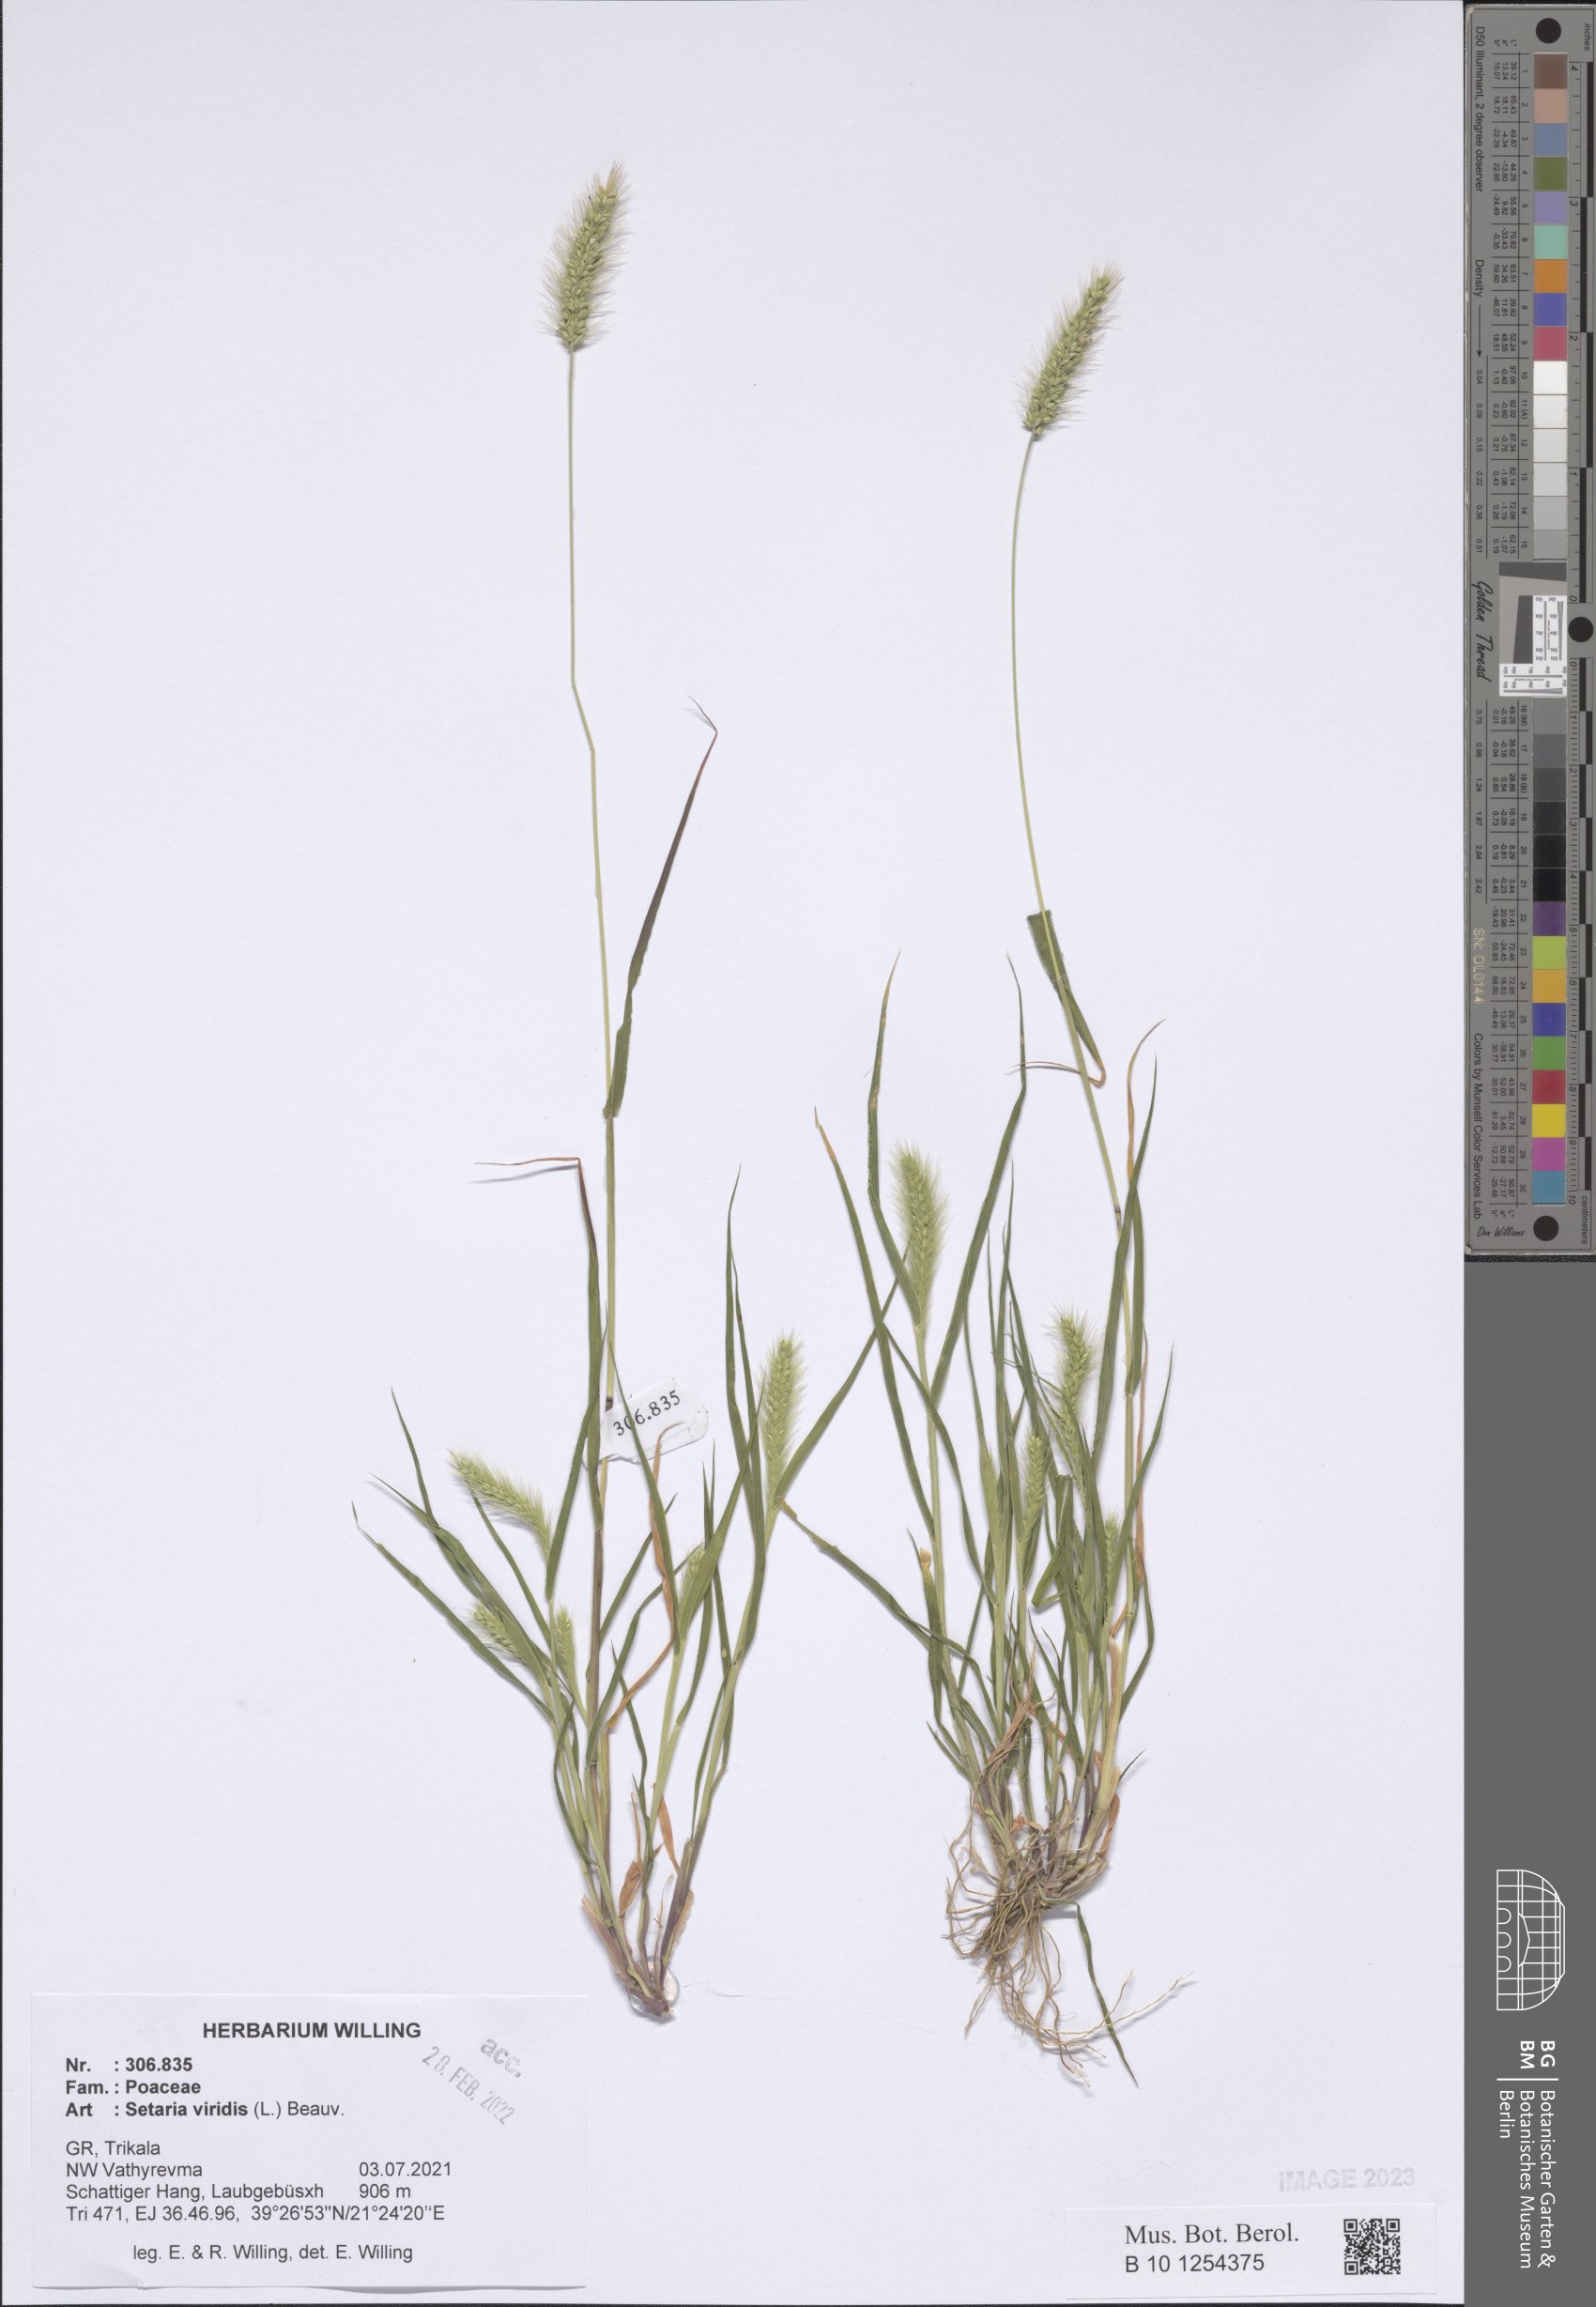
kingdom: Plantae
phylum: Tracheophyta
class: Liliopsida
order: Poales
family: Poaceae
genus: Setaria
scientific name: Setaria viridis
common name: Green bristlegrass
